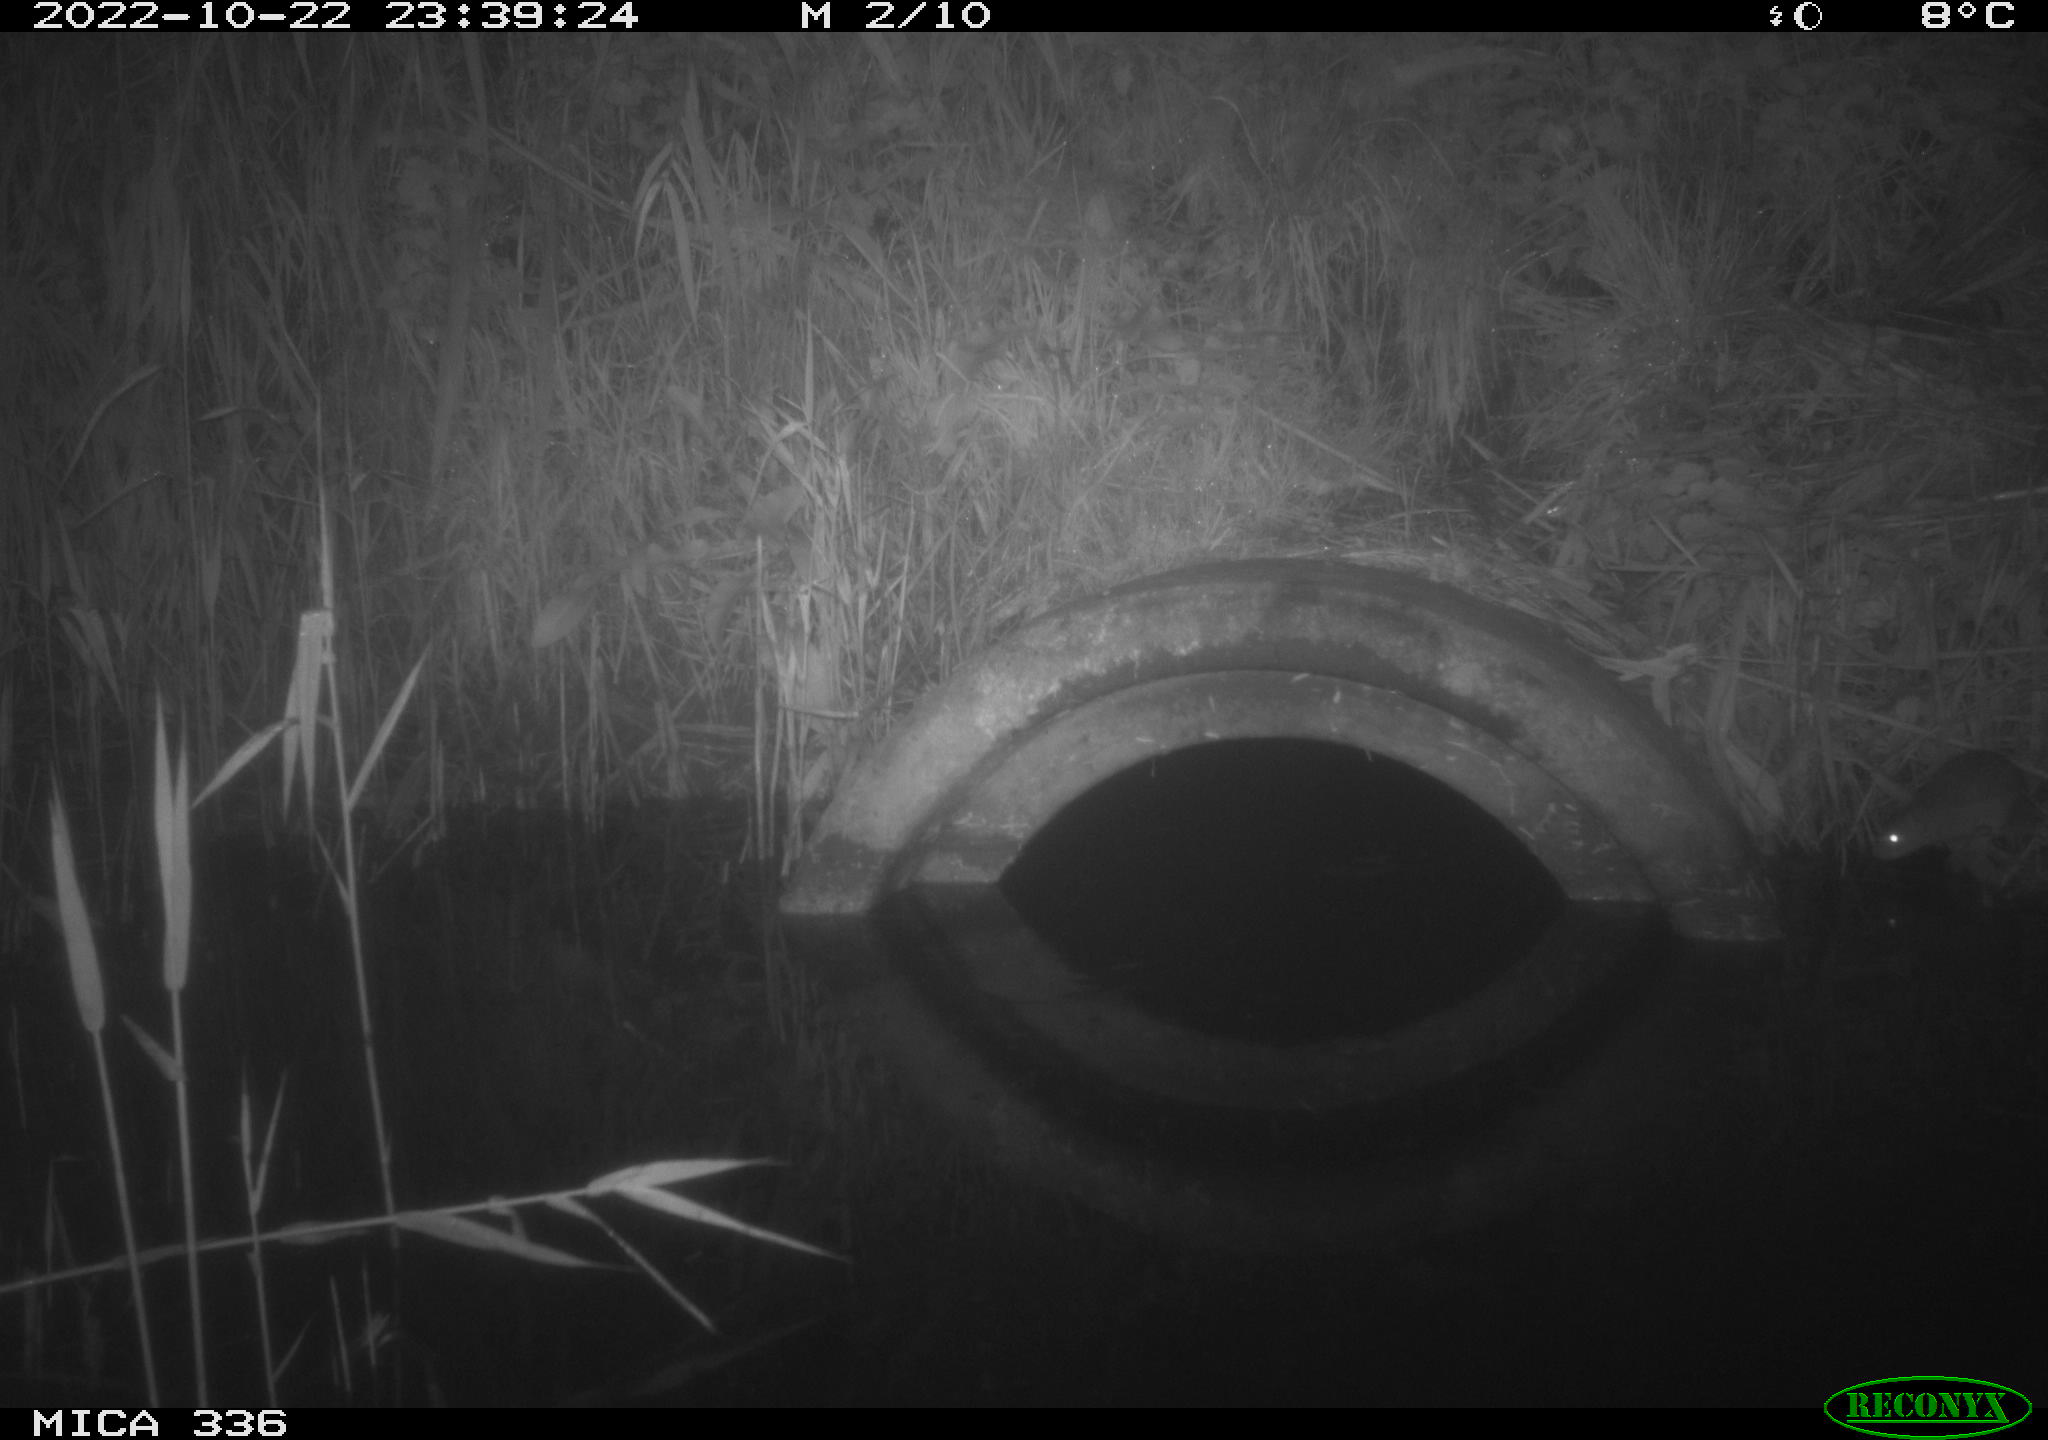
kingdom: Animalia
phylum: Chordata
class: Mammalia
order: Rodentia
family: Muridae
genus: Rattus
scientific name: Rattus norvegicus
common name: Brown rat
